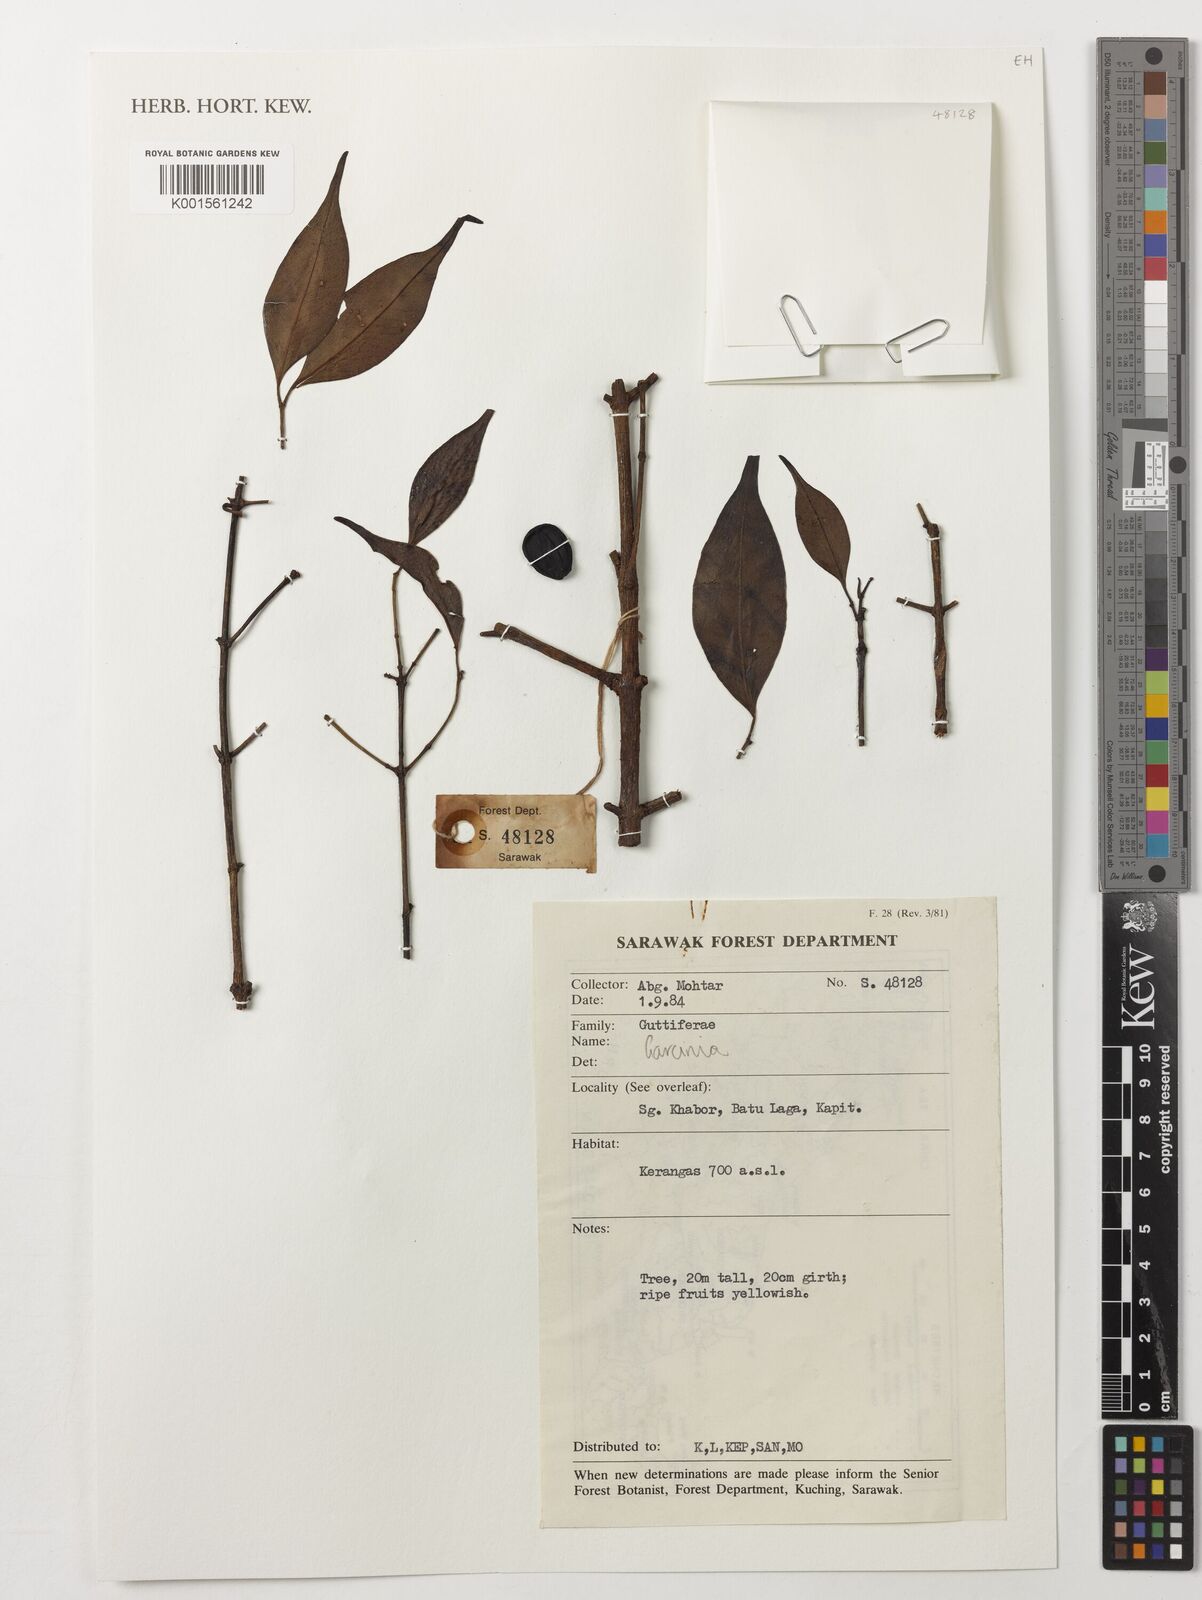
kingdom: Plantae
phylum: Tracheophyta
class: Magnoliopsida
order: Malpighiales
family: Clusiaceae
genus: Garcinia
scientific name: Garcinia
